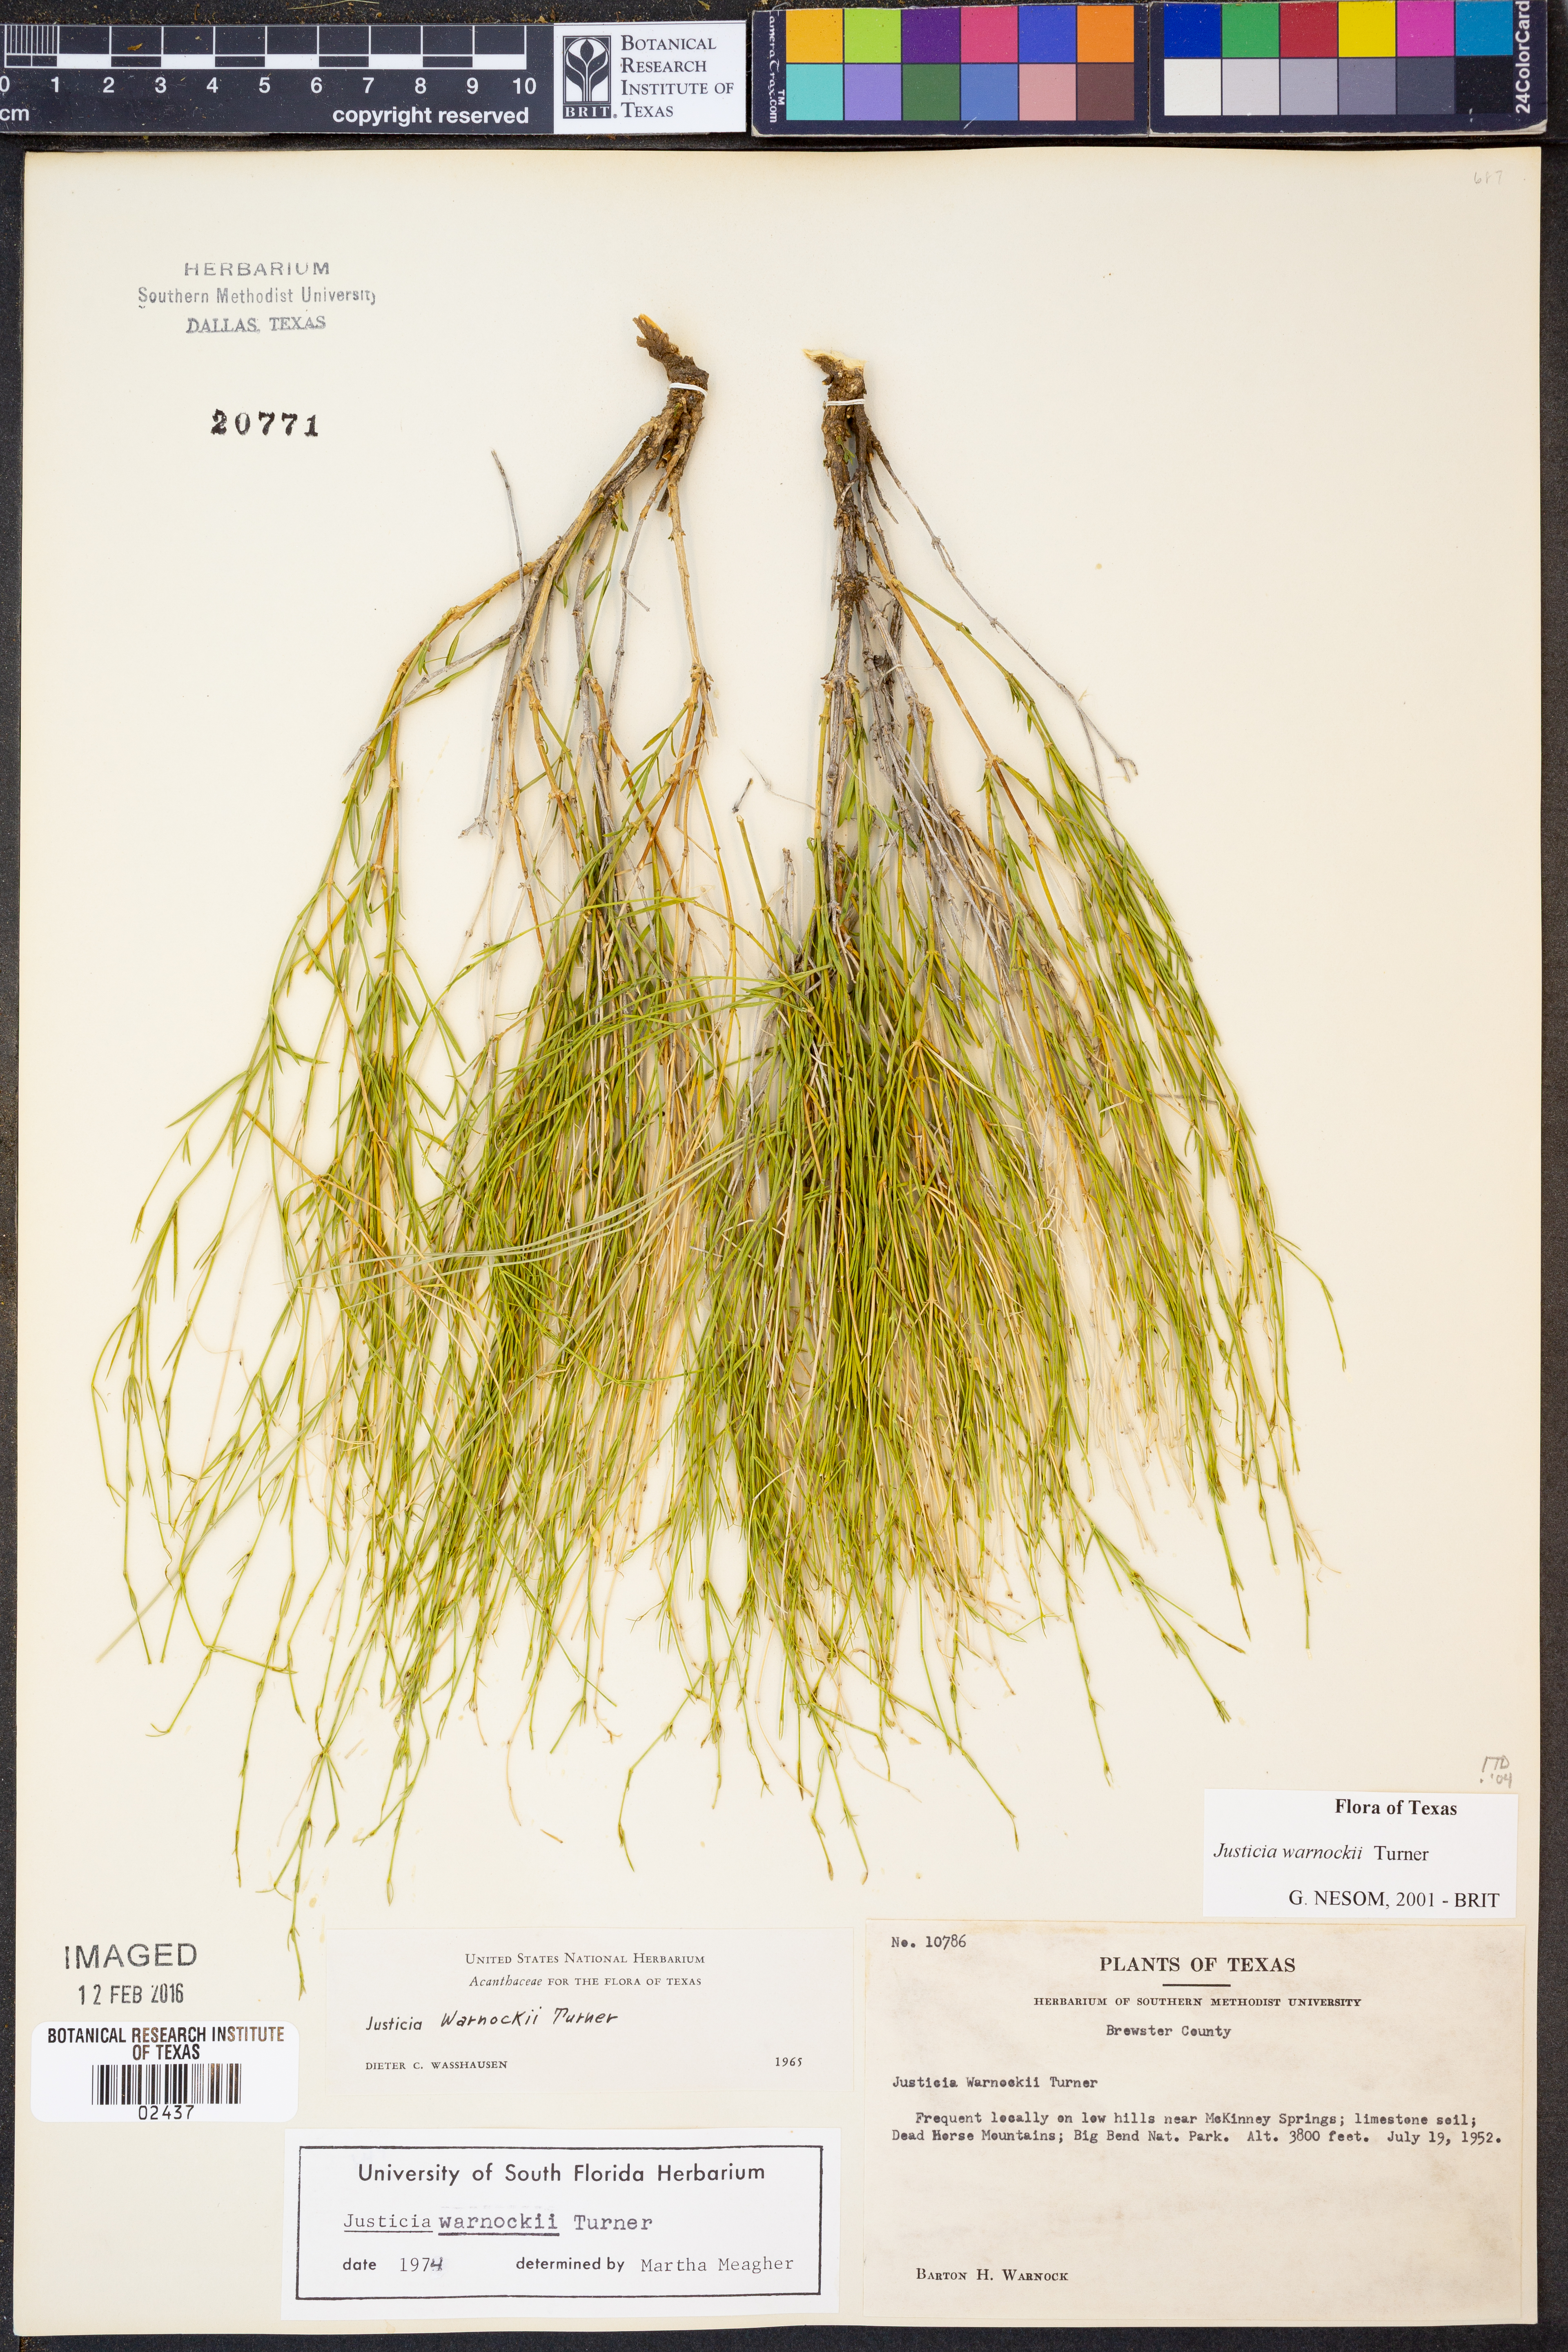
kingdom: Plantae
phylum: Tracheophyta
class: Magnoliopsida
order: Lamiales
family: Acanthaceae
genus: Justicia
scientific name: Justicia warnockii
